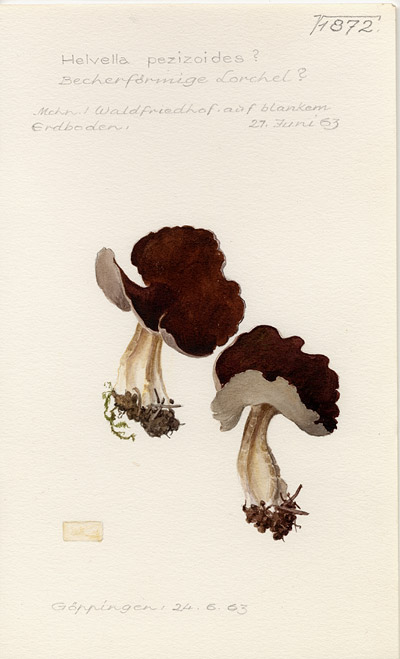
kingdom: Fungi
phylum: Ascomycota
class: Pezizomycetes
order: Pezizales
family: Helvellaceae
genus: Helvella
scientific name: Helvella pezizoides
